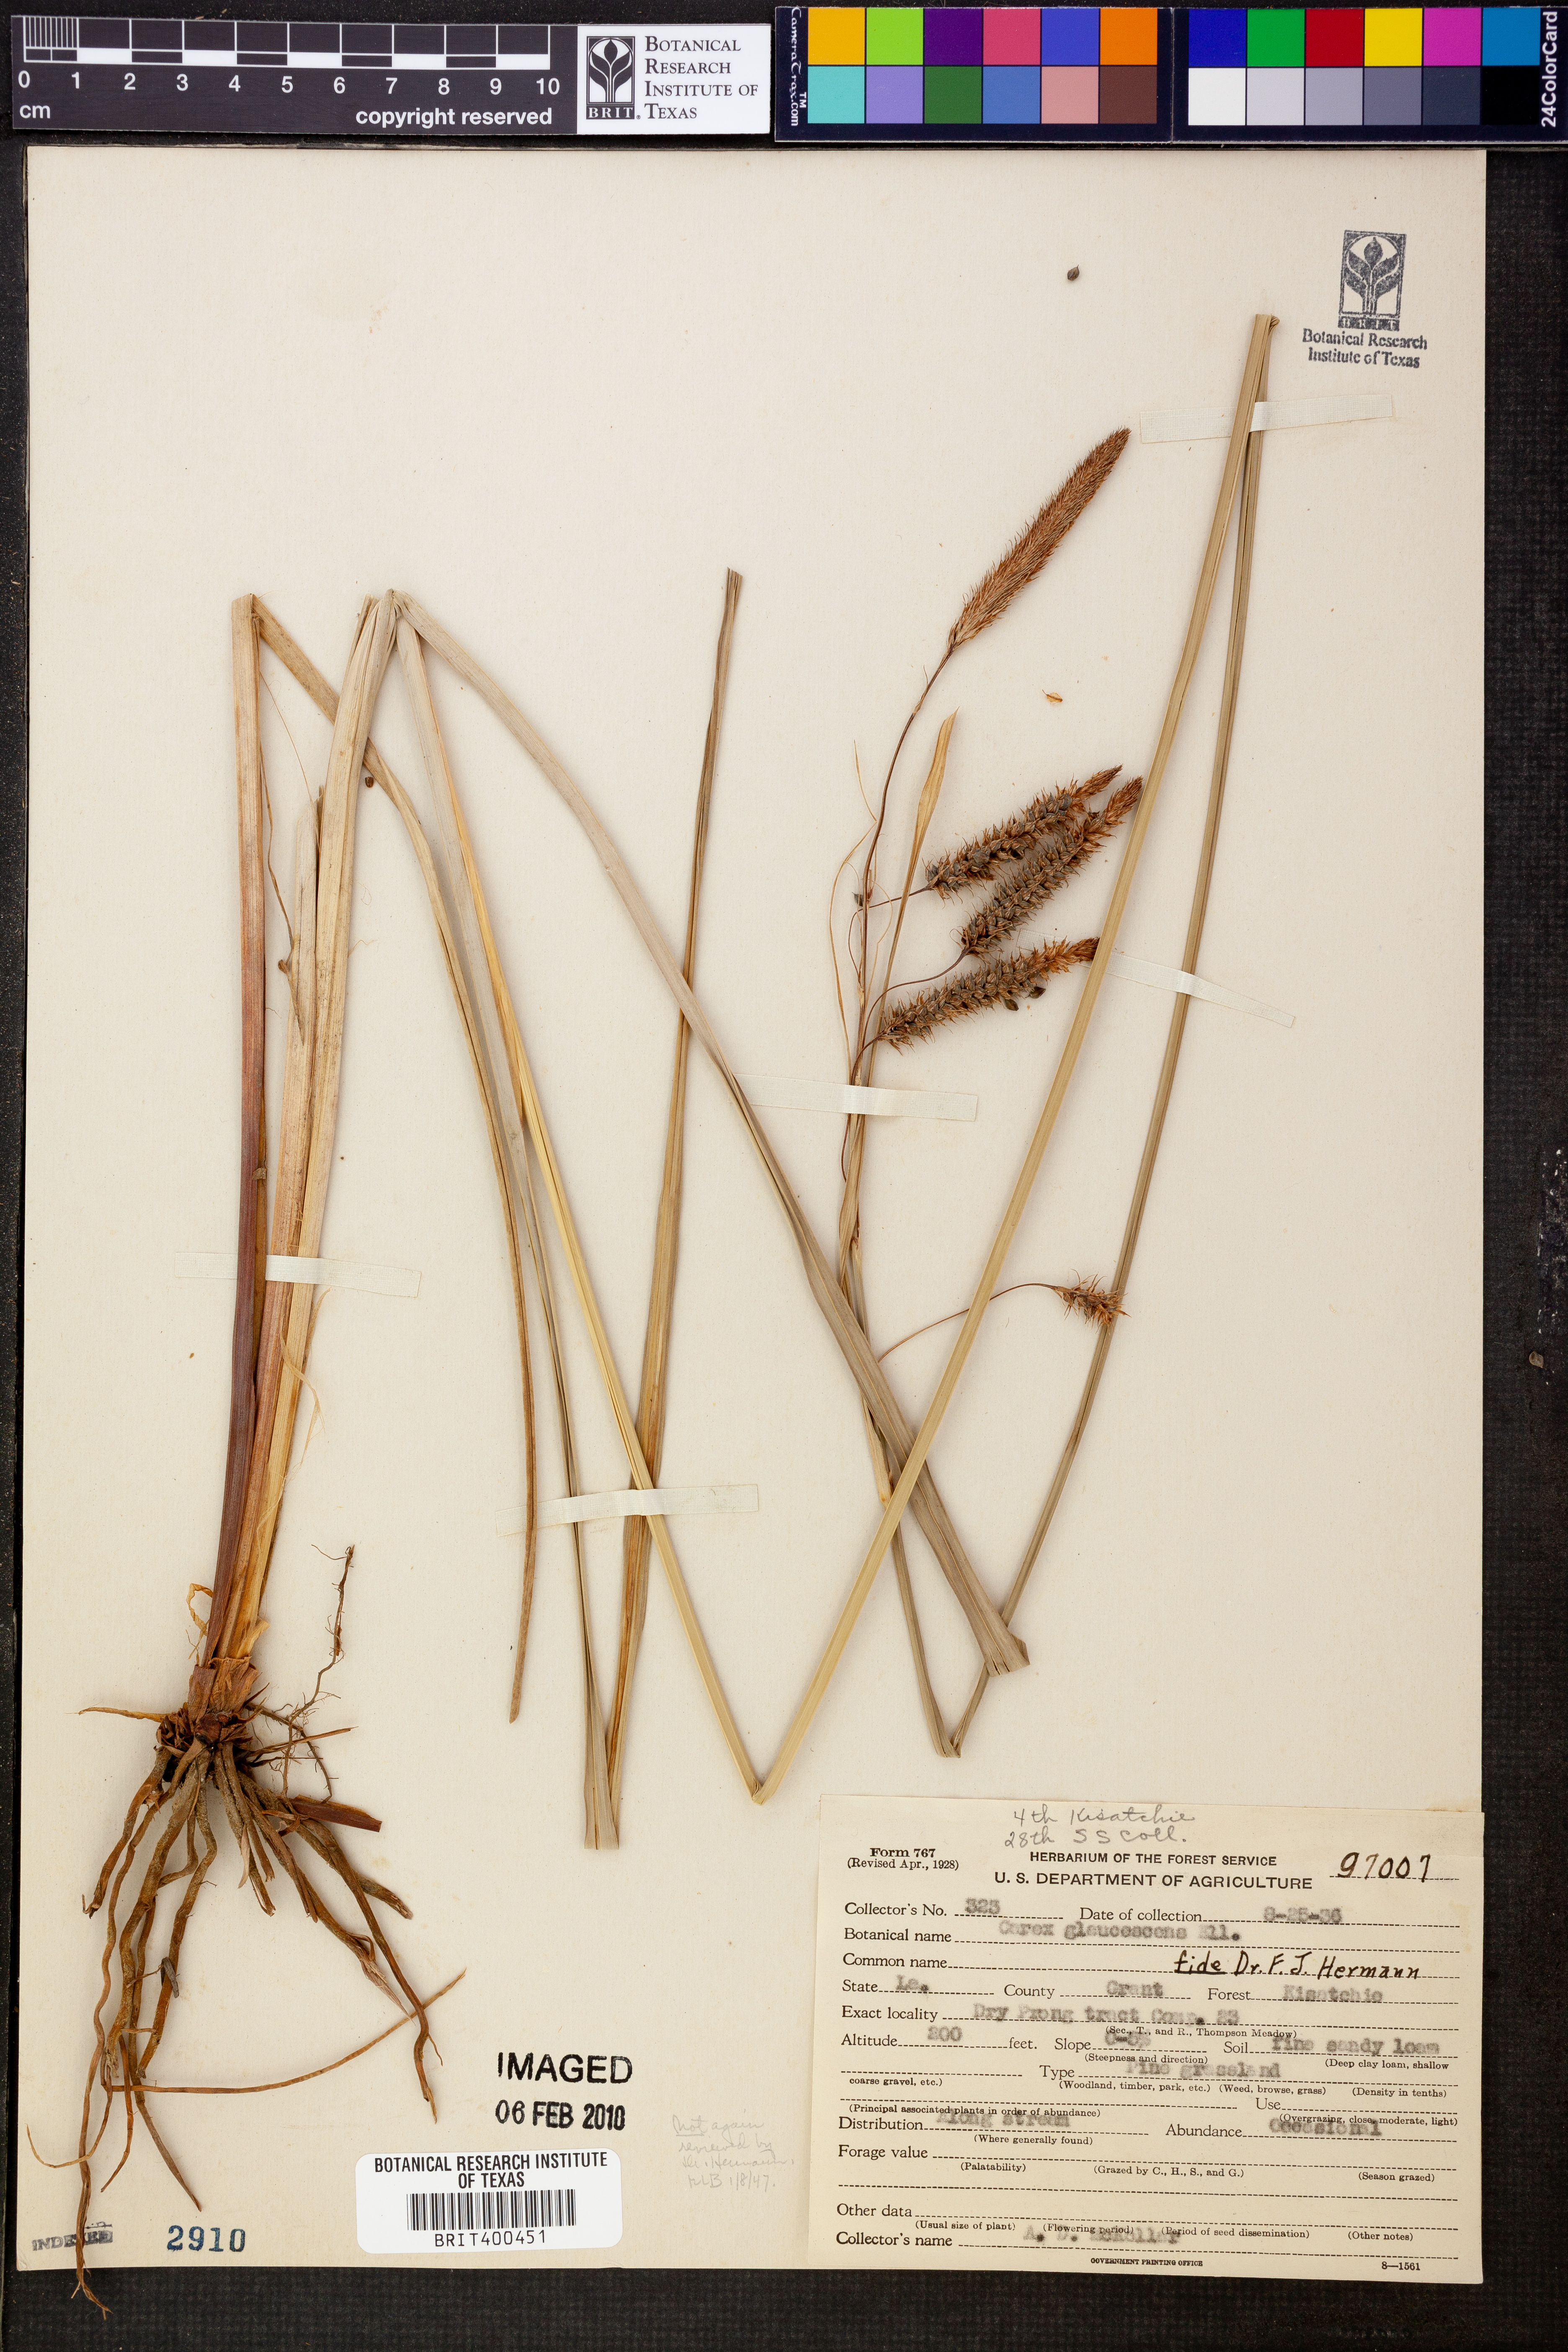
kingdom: Plantae
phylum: Tracheophyta
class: Liliopsida
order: Poales
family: Cyperaceae
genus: Carex
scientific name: Carex glaucescens
